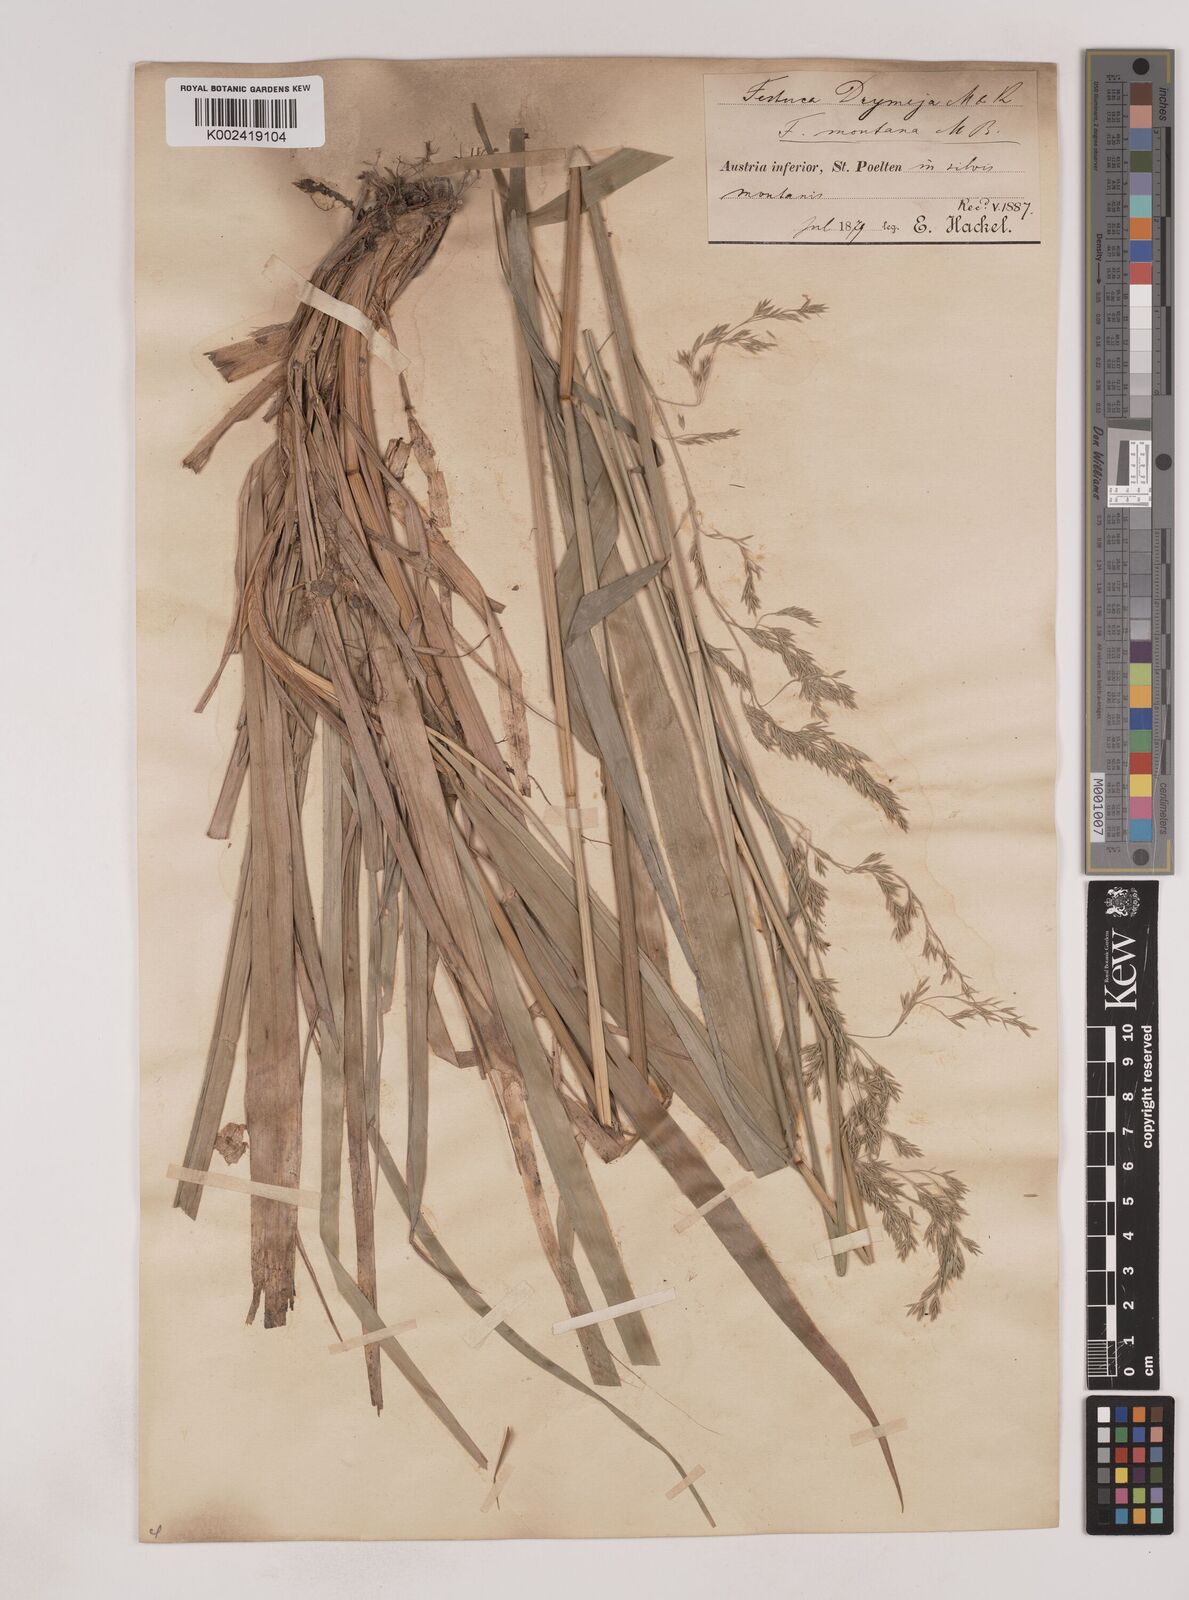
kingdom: Plantae
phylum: Tracheophyta
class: Liliopsida
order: Poales
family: Poaceae
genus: Festuca
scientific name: Festuca drymeja
